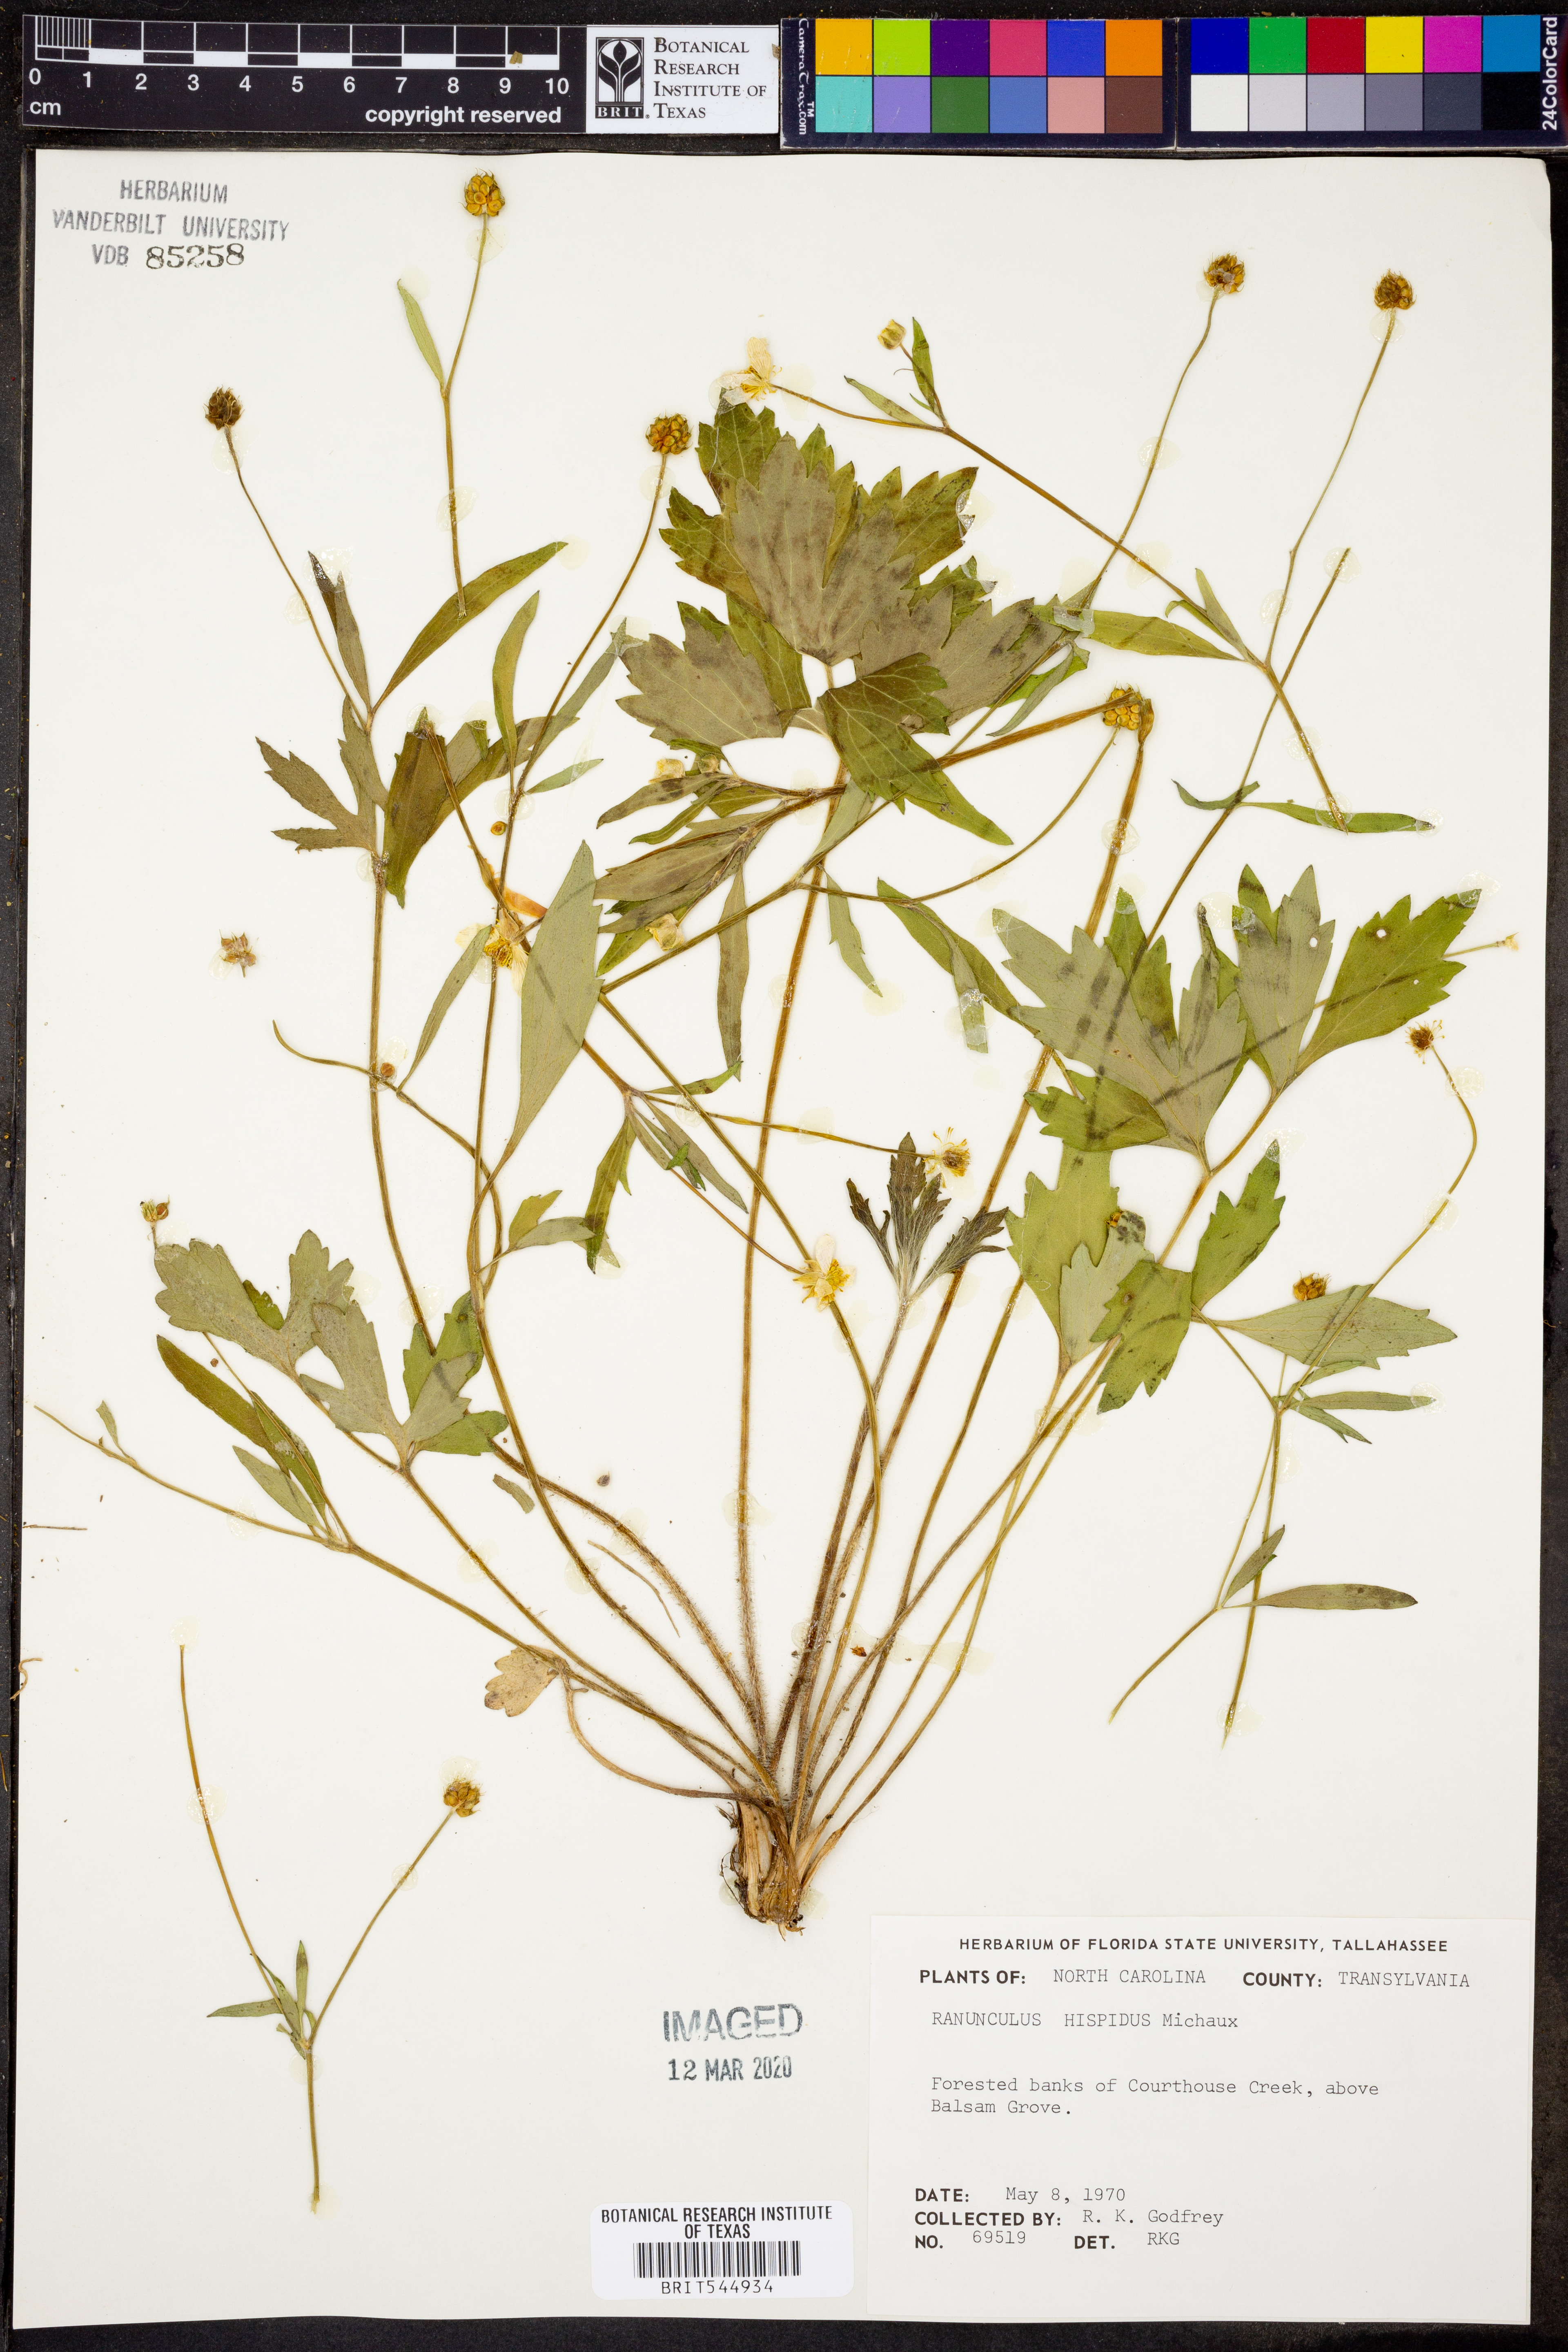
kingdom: Plantae
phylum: Tracheophyta
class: Magnoliopsida
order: Ranunculales
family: Ranunculaceae
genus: Ranunculus
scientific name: Ranunculus hispidus
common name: Bristly buttercup
